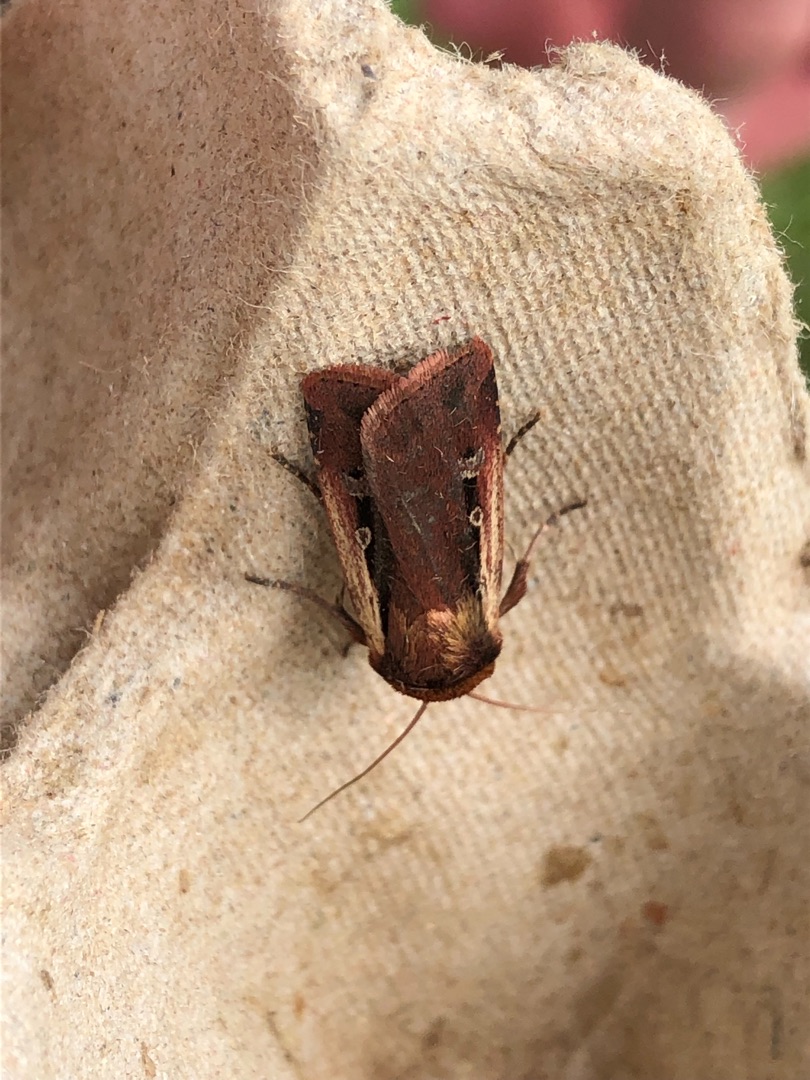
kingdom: Animalia
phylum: Arthropoda
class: Insecta
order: Lepidoptera
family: Noctuidae
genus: Ochropleura
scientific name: Ochropleura plecta
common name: Hvidrandet jordugle
